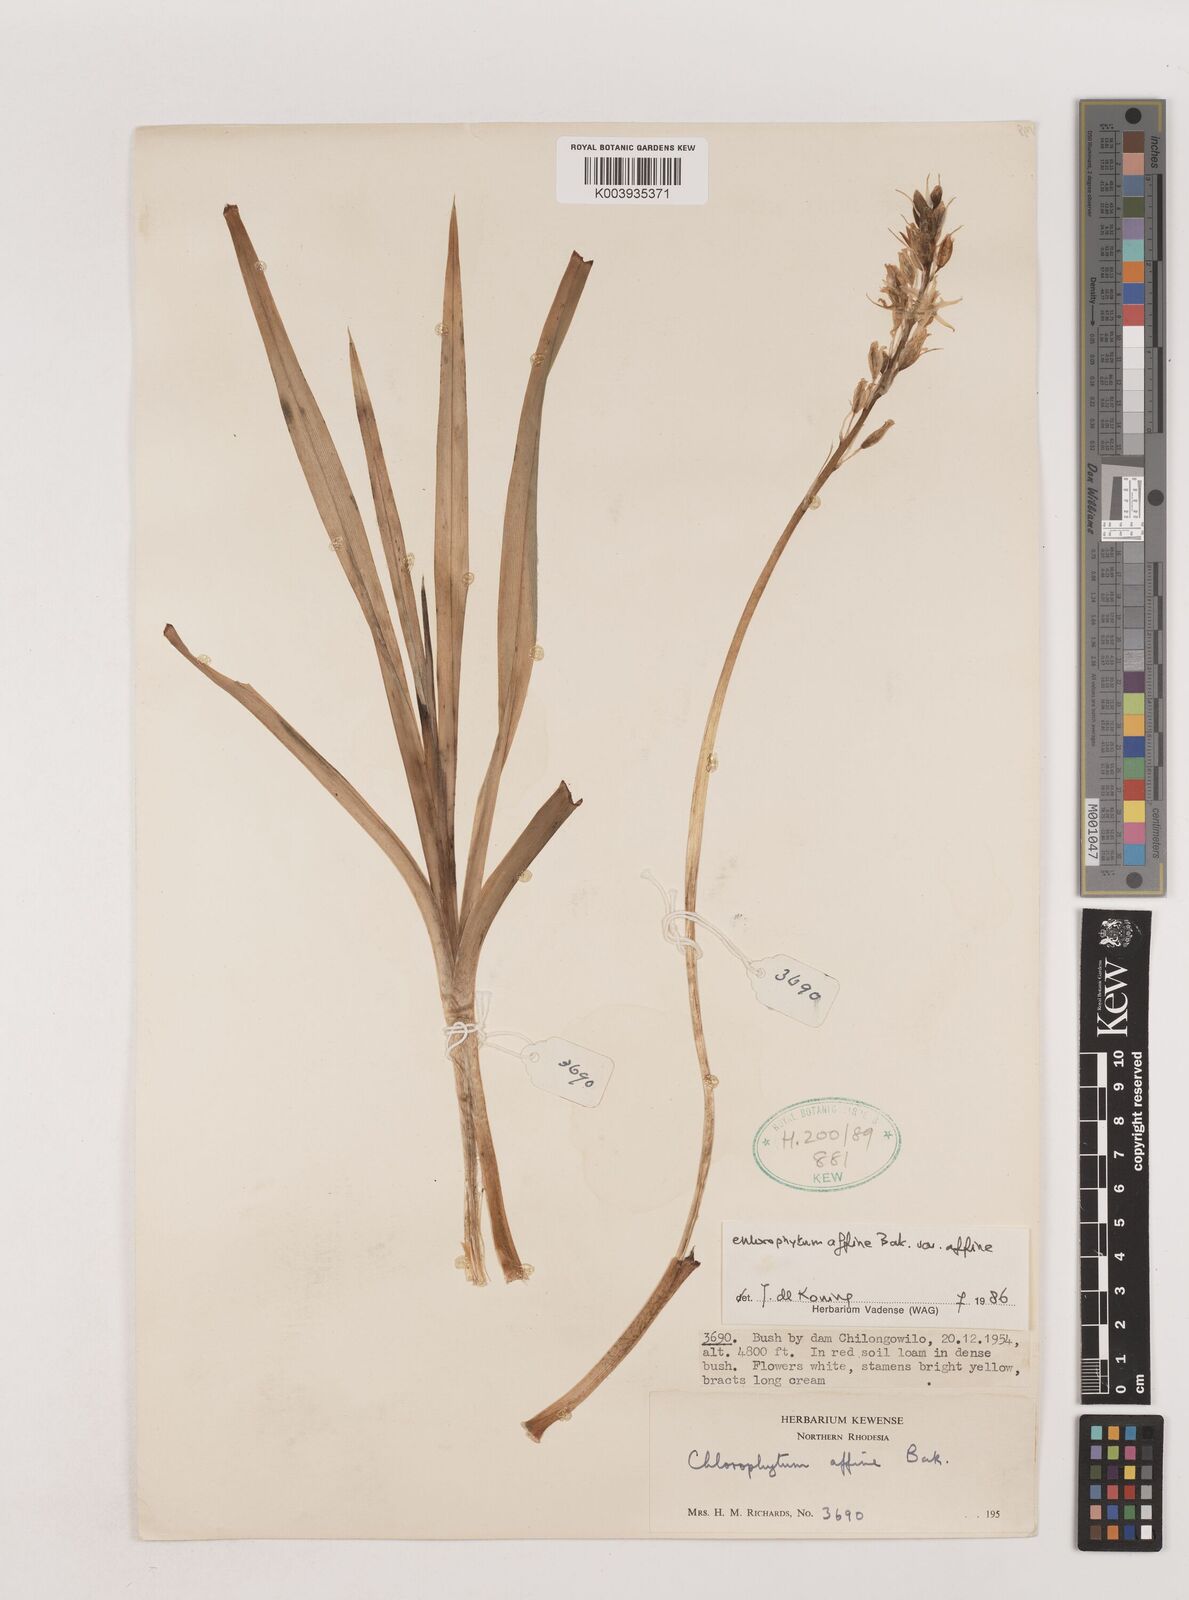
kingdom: Plantae
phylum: Tracheophyta
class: Liliopsida
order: Asparagales
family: Asparagaceae
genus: Chlorophytum
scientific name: Chlorophytum affine
